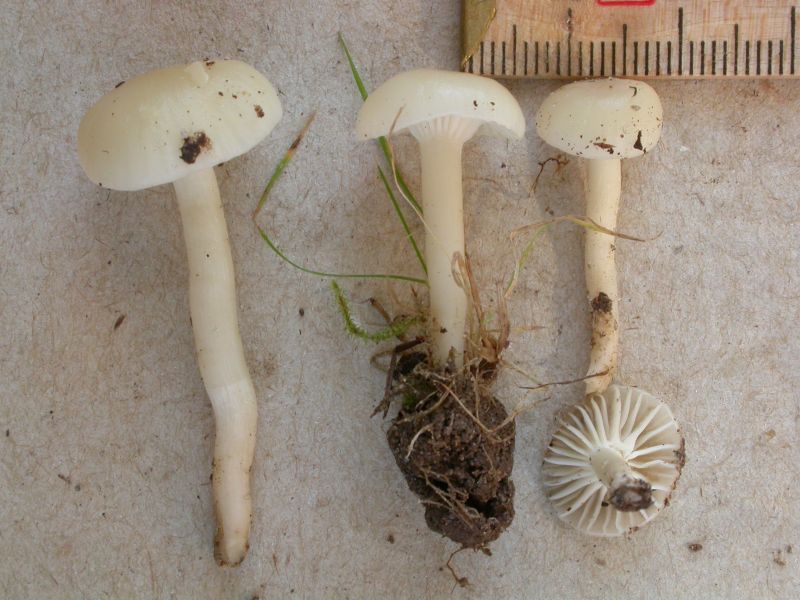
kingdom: Fungi
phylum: Basidiomycota
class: Agaricomycetes
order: Agaricales
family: Hygrophoraceae
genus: Cuphophyllus
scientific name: Cuphophyllus russocoriaceus
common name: ruslæder-vokshat
